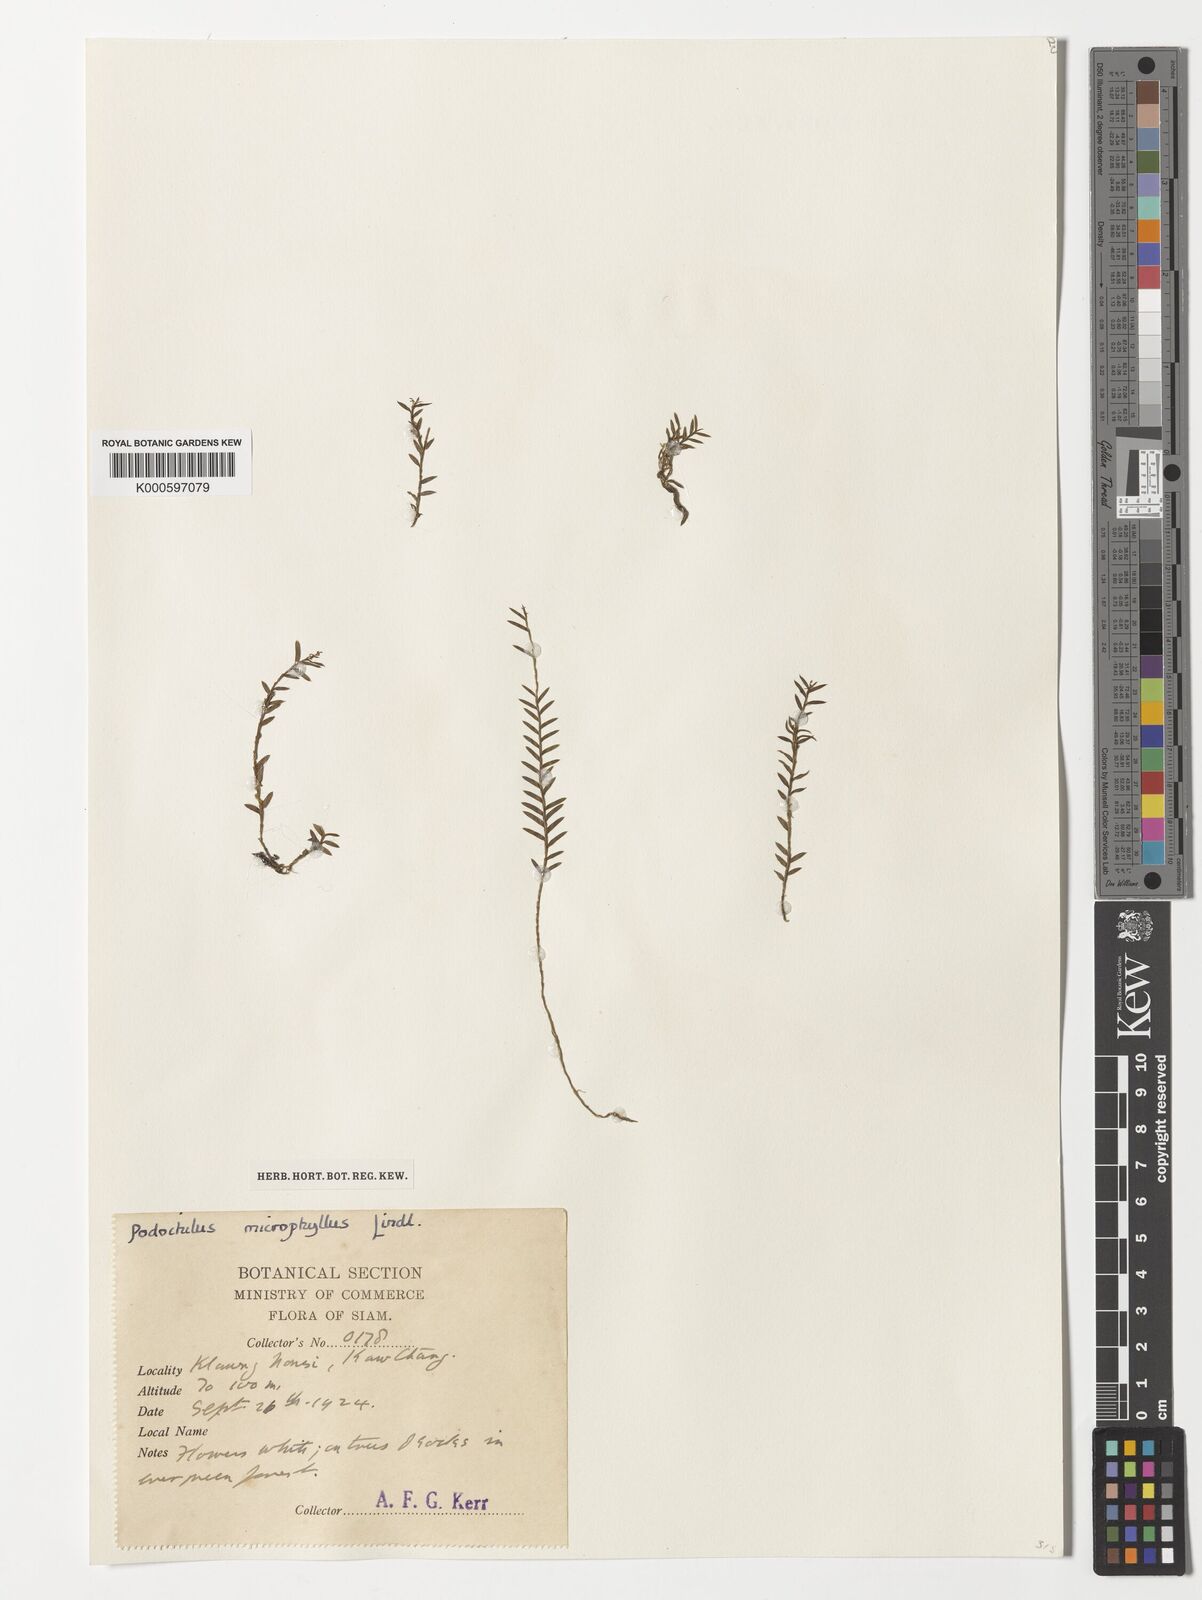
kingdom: Plantae
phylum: Tracheophyta
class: Liliopsida
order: Asparagales
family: Orchidaceae
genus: Podochilus
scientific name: Podochilus microphyllus
